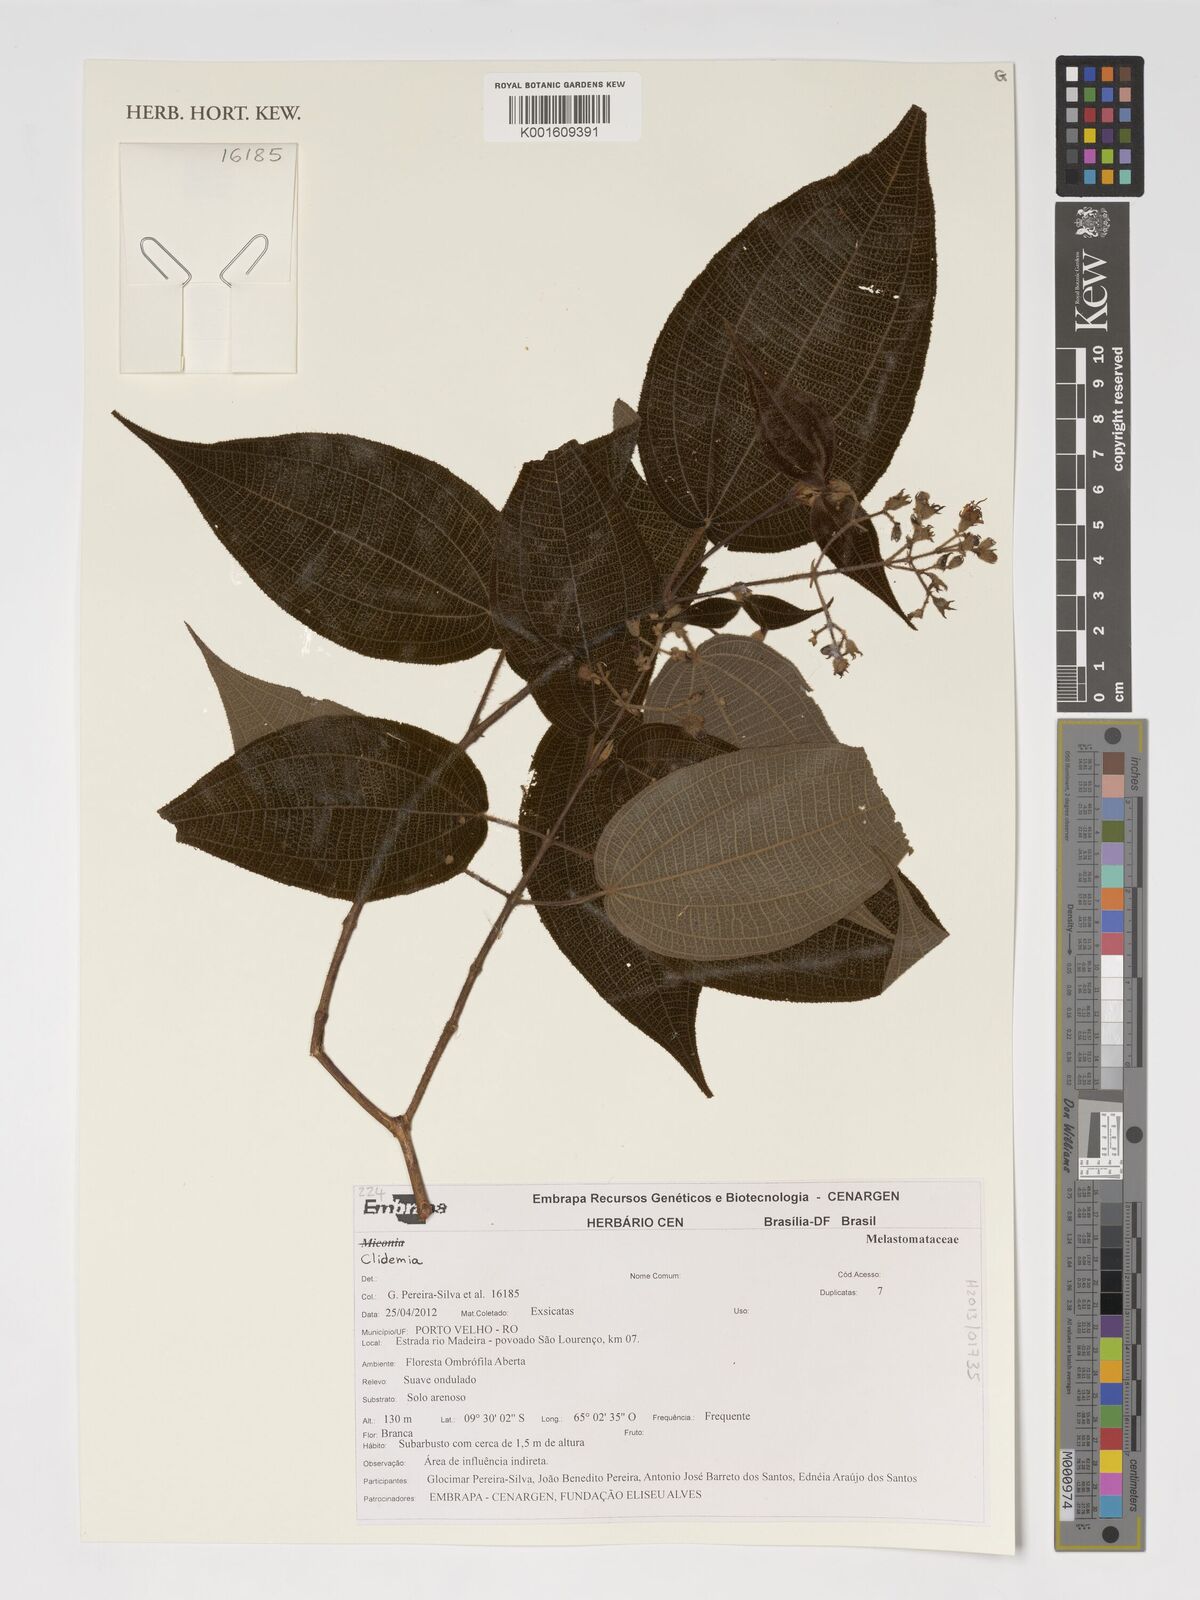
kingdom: Plantae
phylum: Tracheophyta
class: Magnoliopsida
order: Myrtales
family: Melastomataceae
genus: Miconia
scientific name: Miconia
